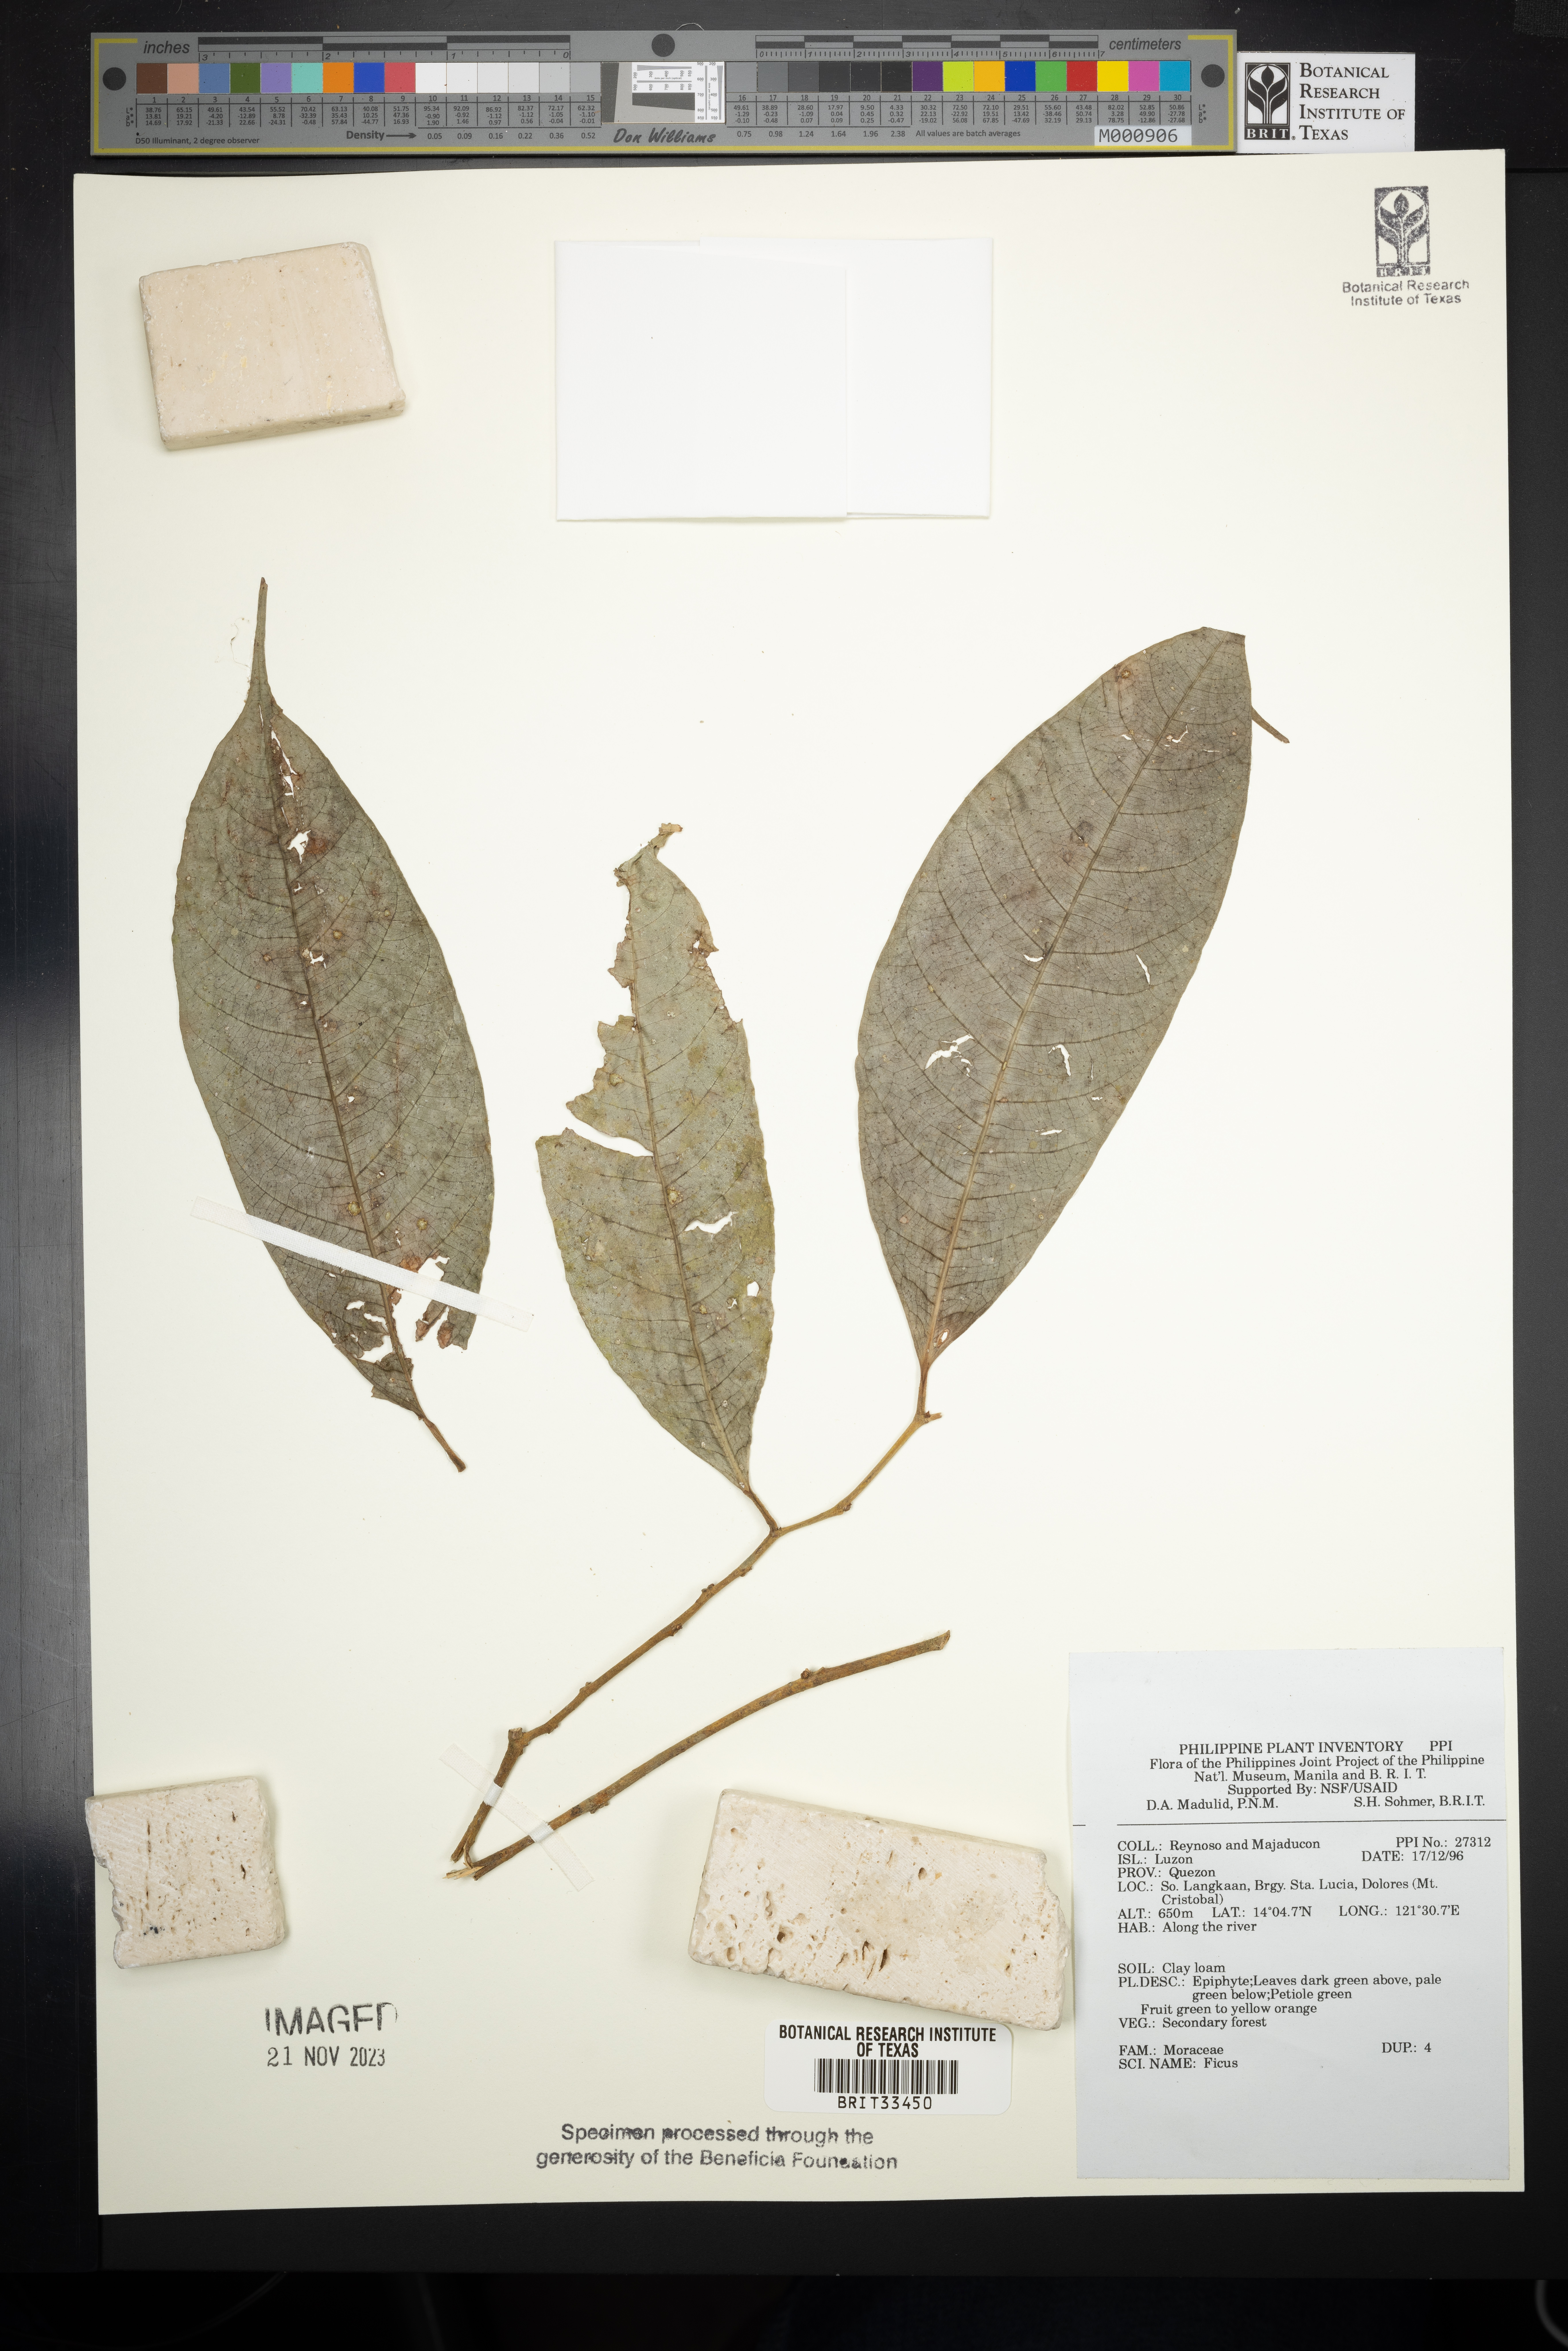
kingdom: Plantae
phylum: Tracheophyta
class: Magnoliopsida
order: Rosales
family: Moraceae
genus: Ficus
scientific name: Ficus
